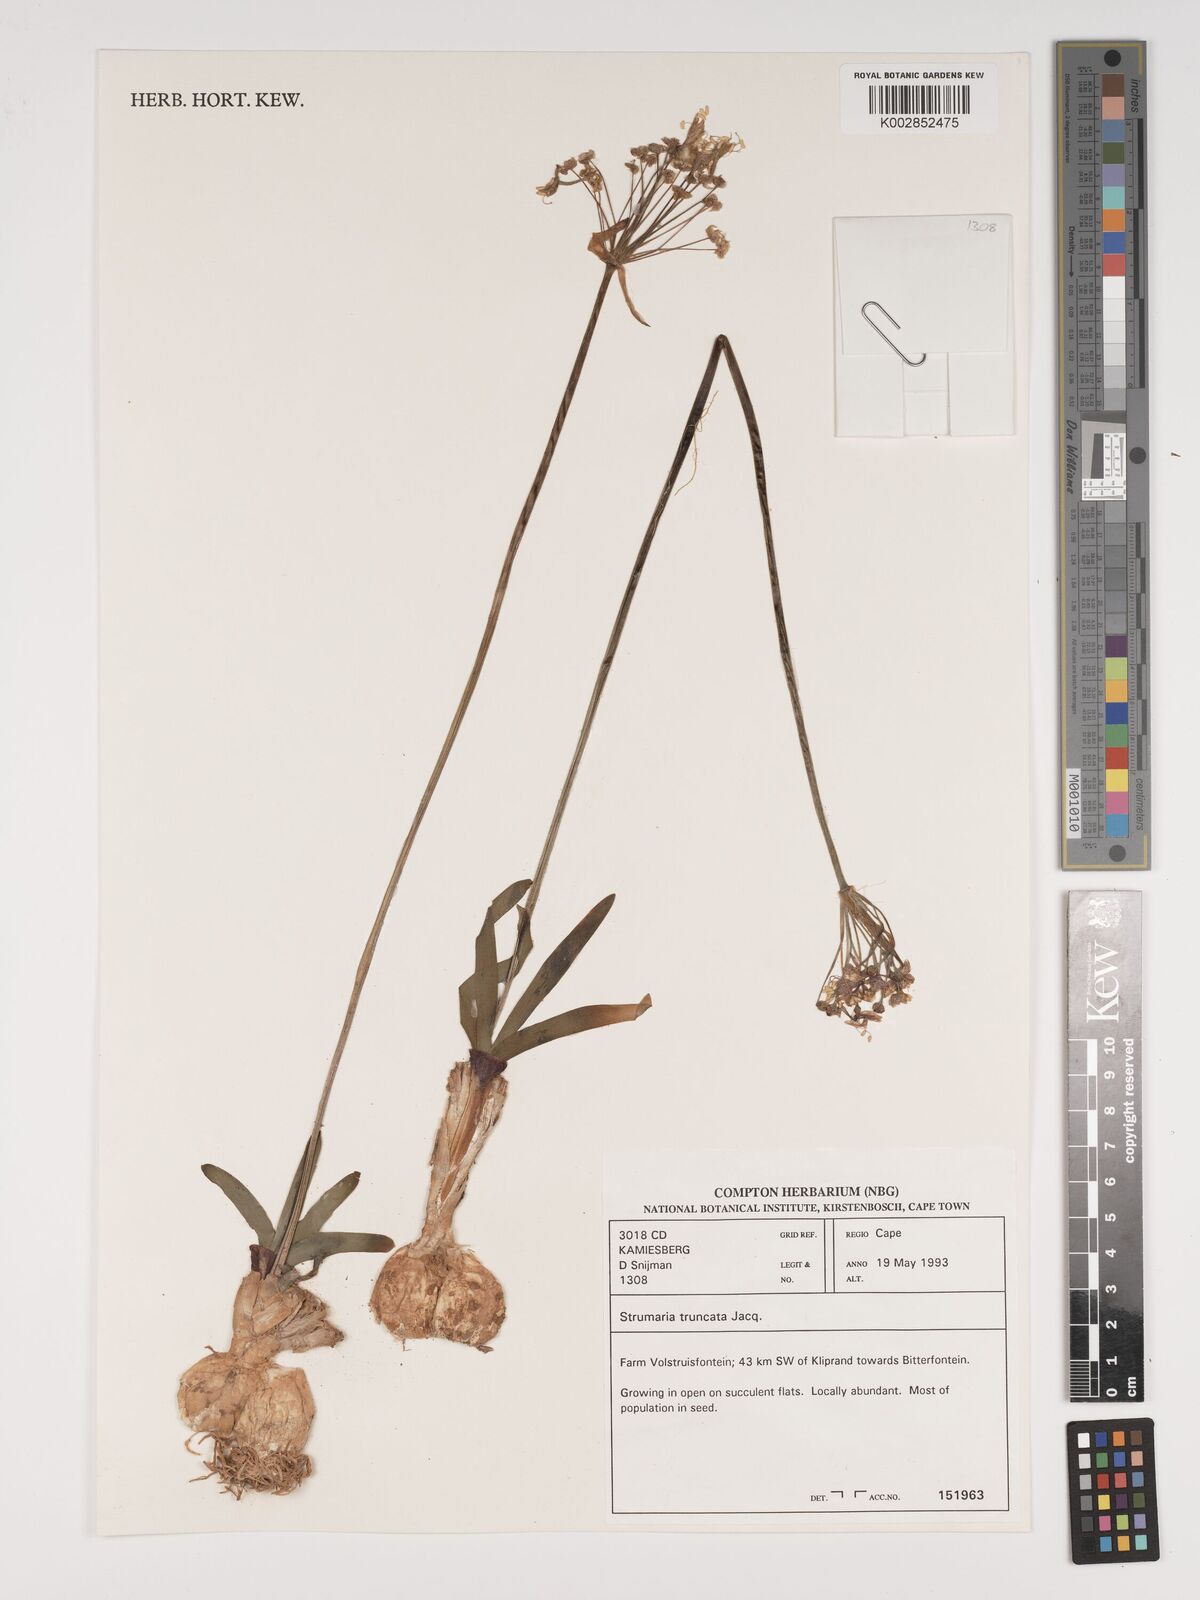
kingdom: Plantae
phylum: Tracheophyta
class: Liliopsida
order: Asparagales
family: Amaryllidaceae
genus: Strumaria
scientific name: Strumaria truncata
